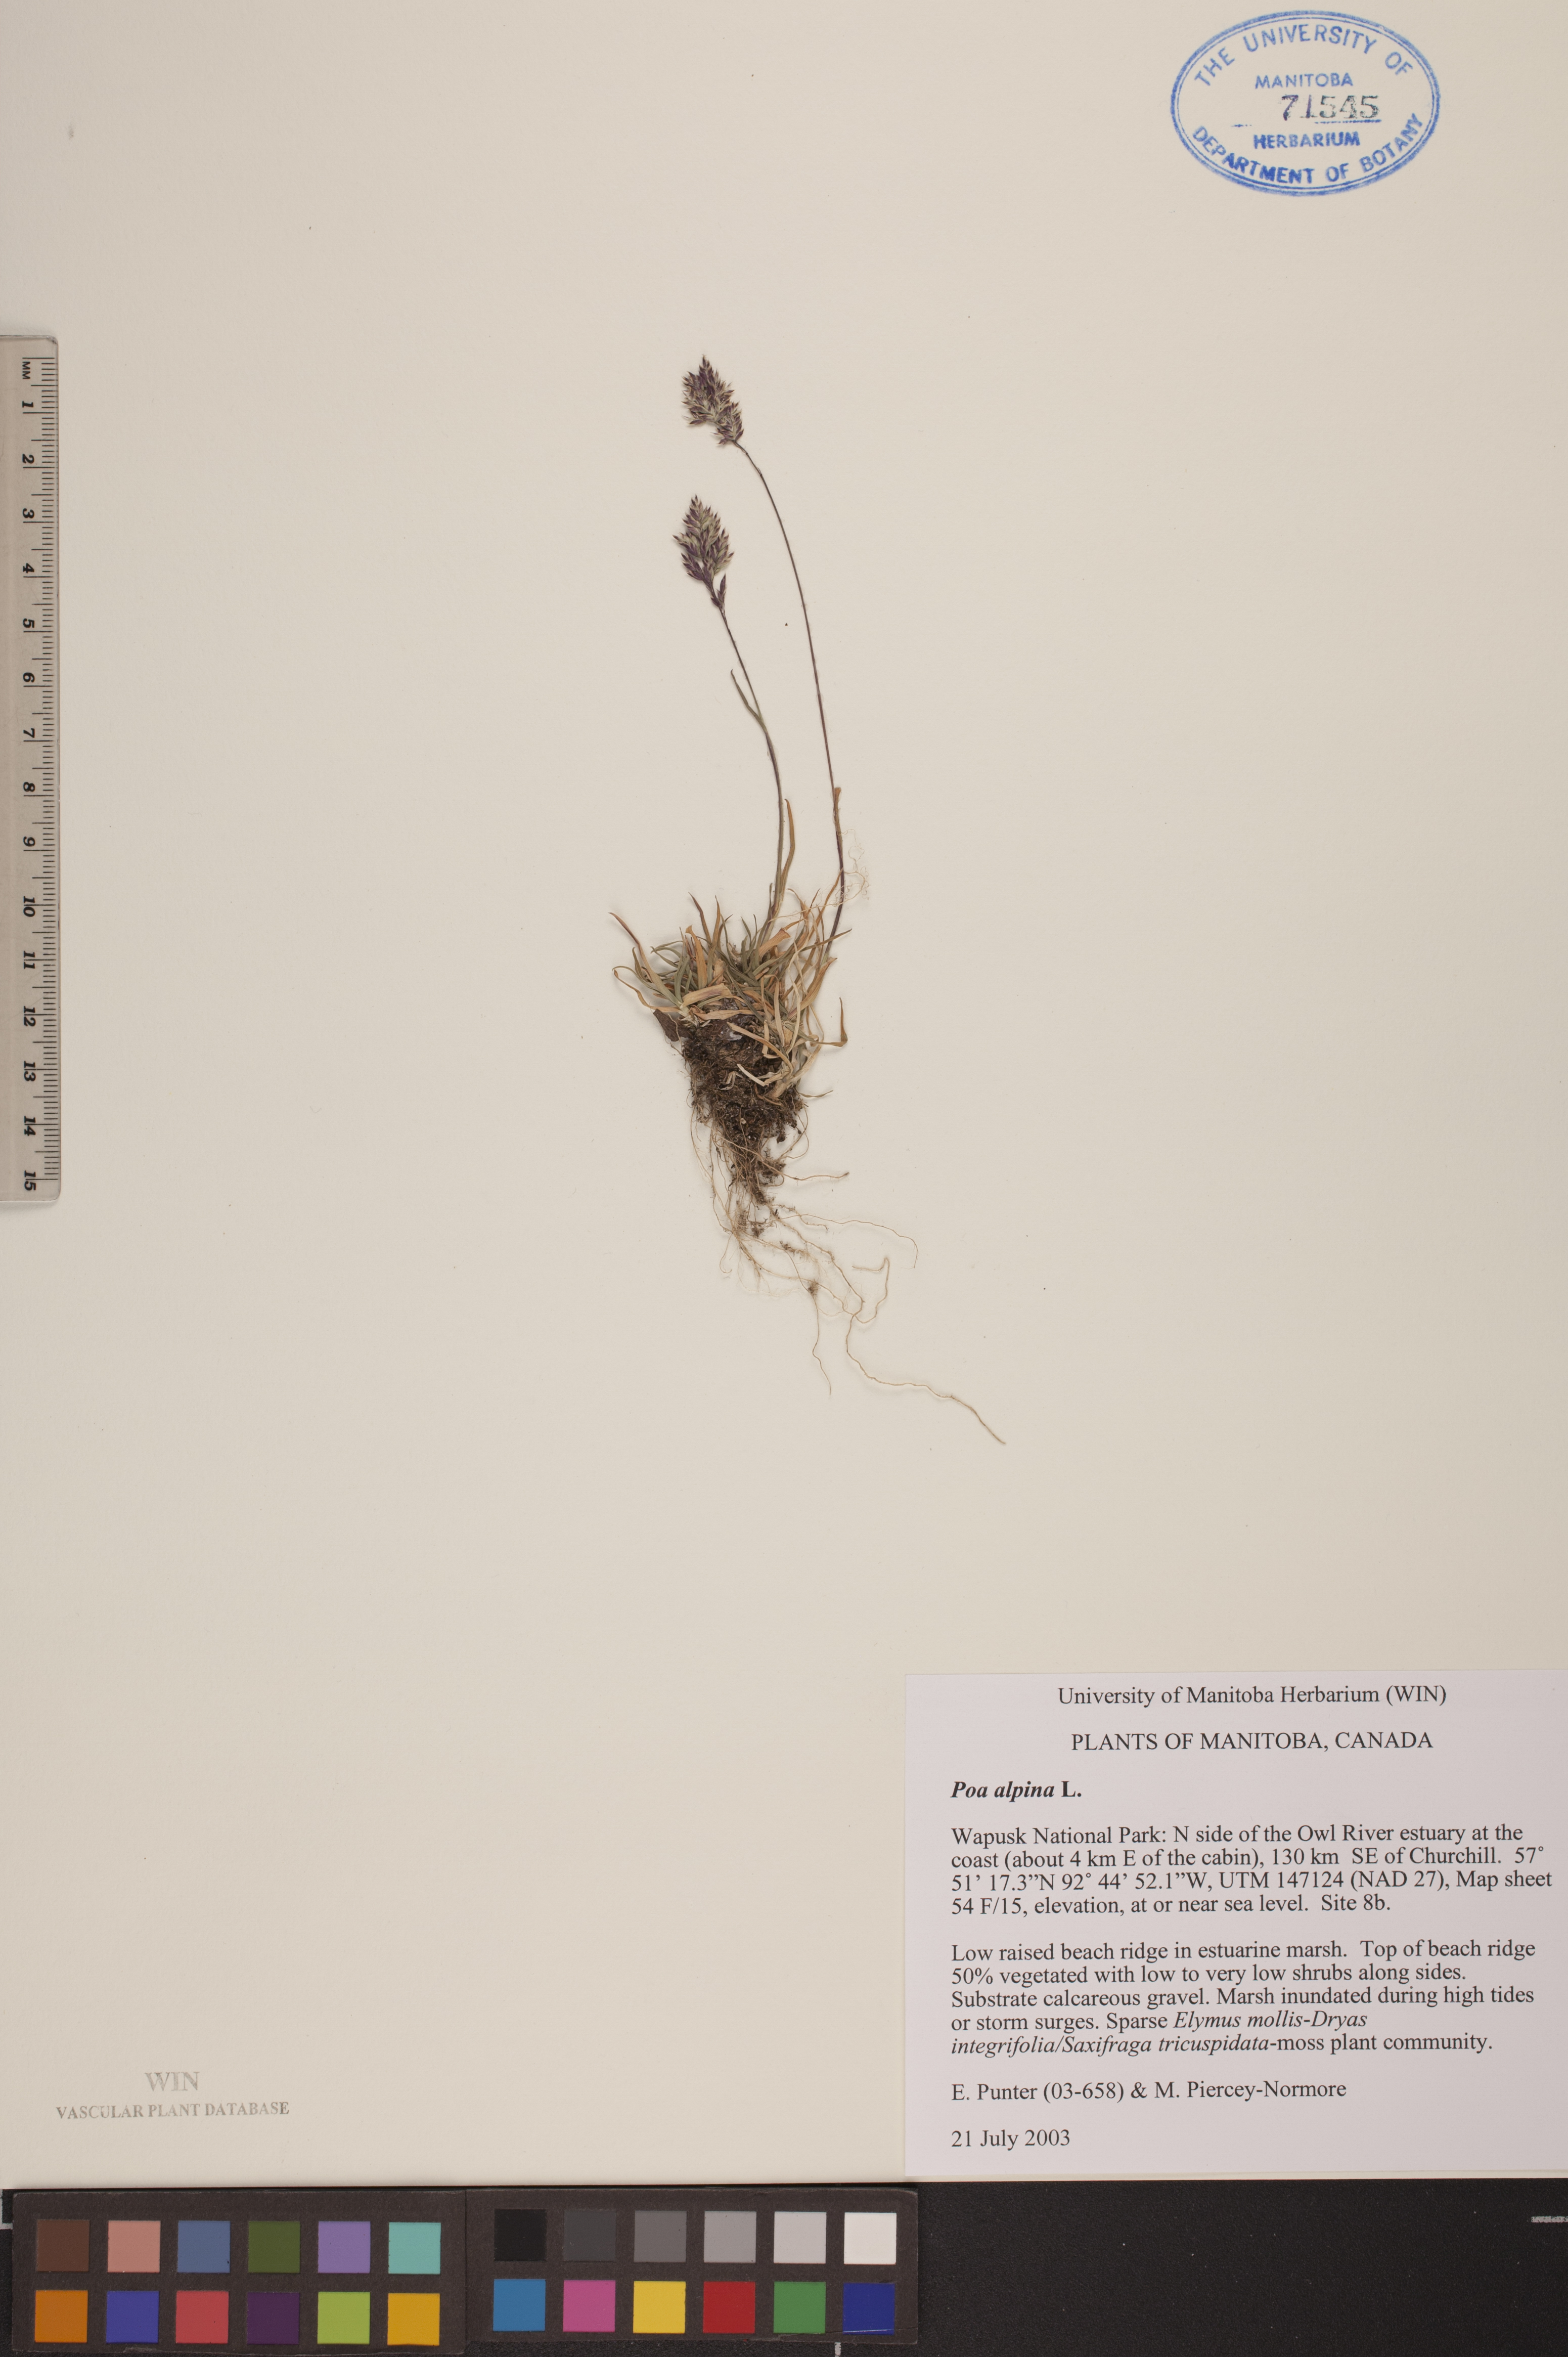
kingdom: Plantae
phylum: Tracheophyta
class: Liliopsida
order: Poales
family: Poaceae
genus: Poa
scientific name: Poa alpina
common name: Alpine bluegrass
